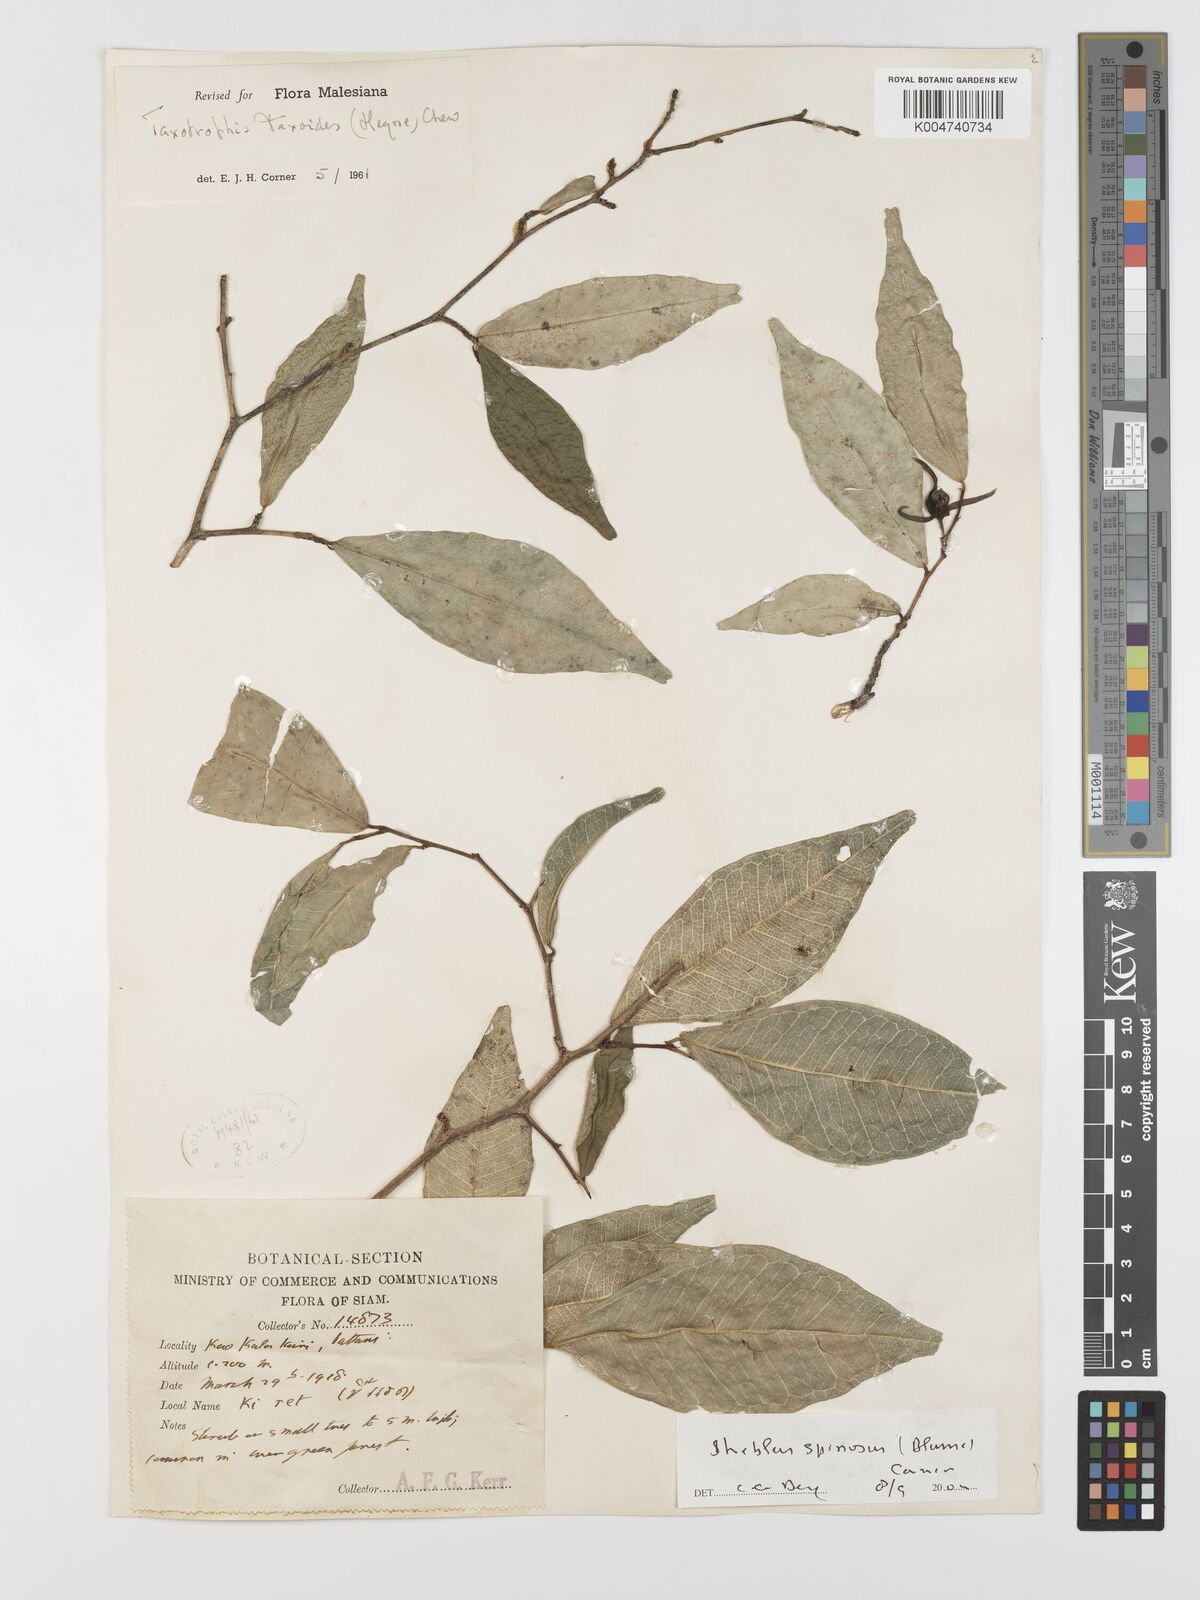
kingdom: Plantae
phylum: Tracheophyta
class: Magnoliopsida
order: Rosales
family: Moraceae
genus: Taxotrophis
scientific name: Taxotrophis spinosa
